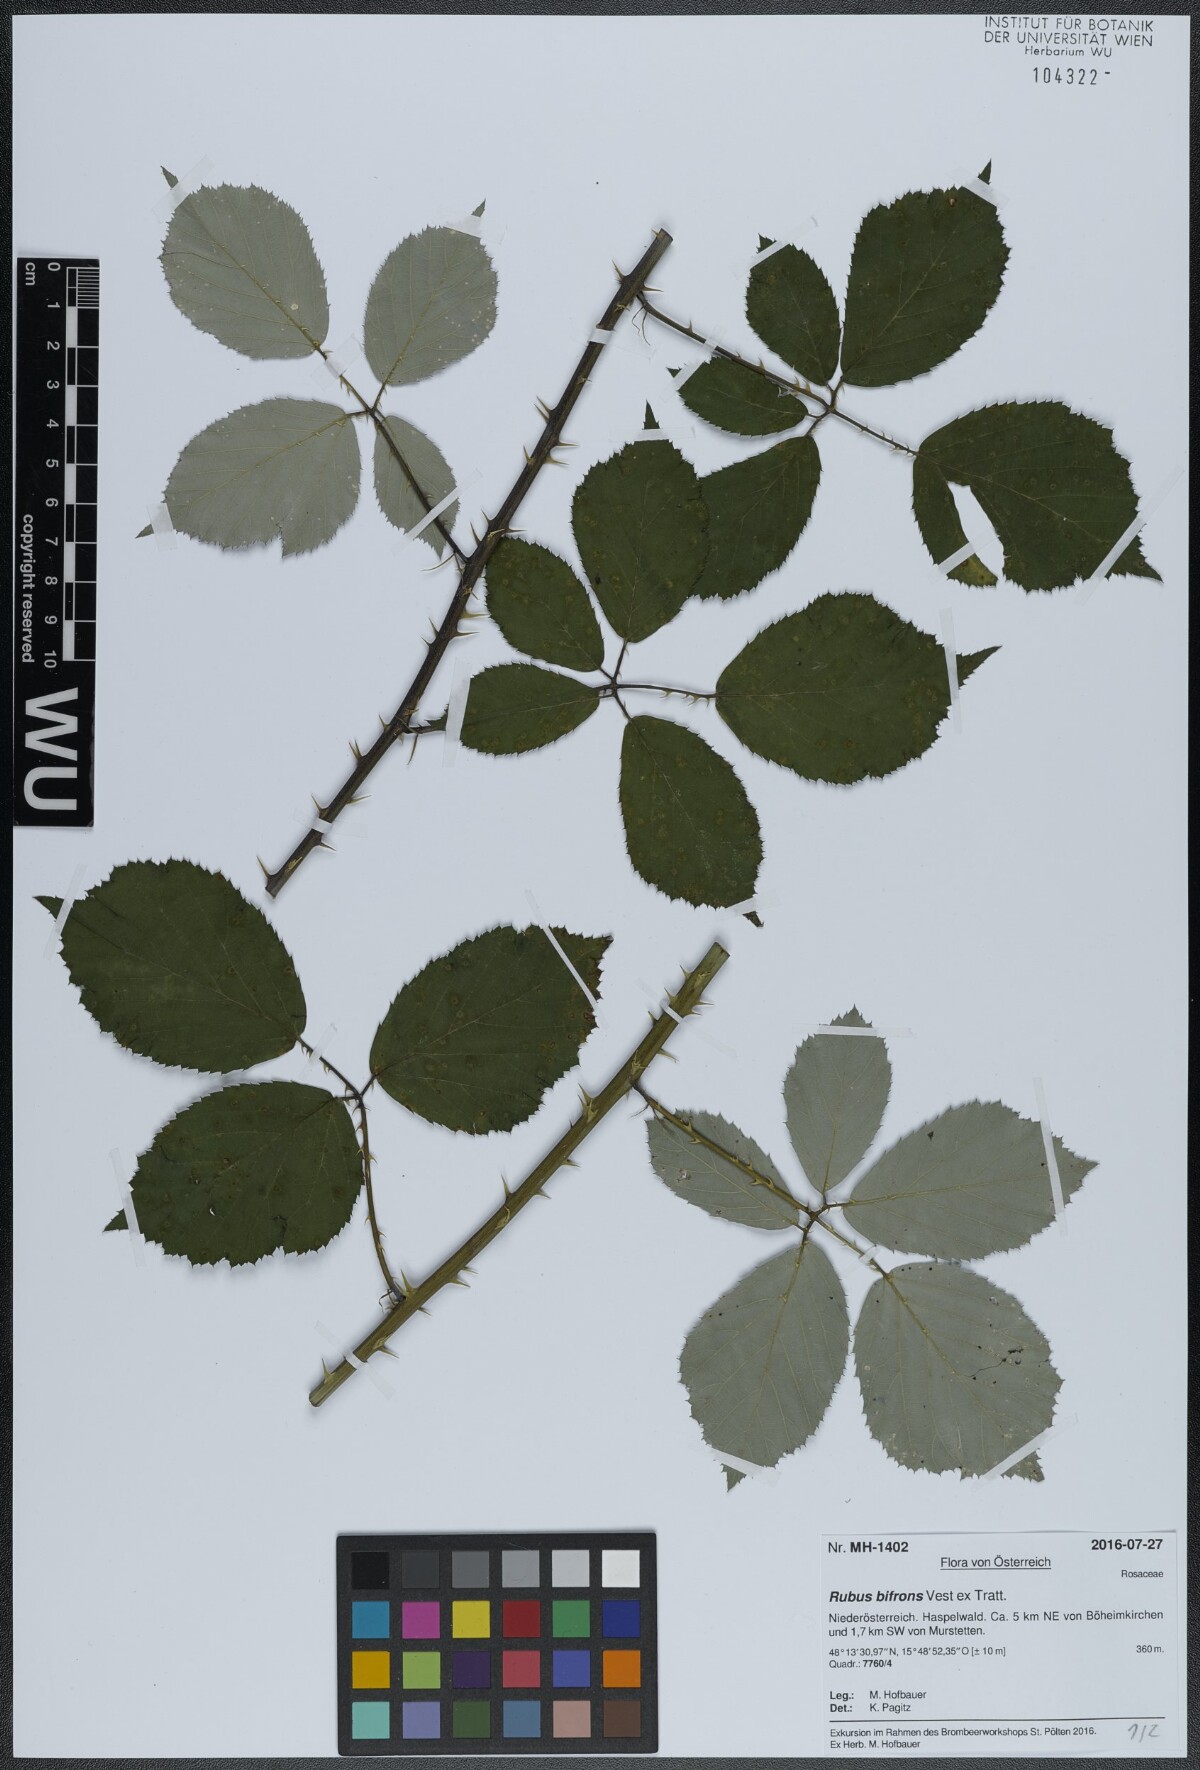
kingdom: Plantae
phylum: Tracheophyta
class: Magnoliopsida
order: Rosales
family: Rosaceae
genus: Rubus
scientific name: Rubus bifrons
